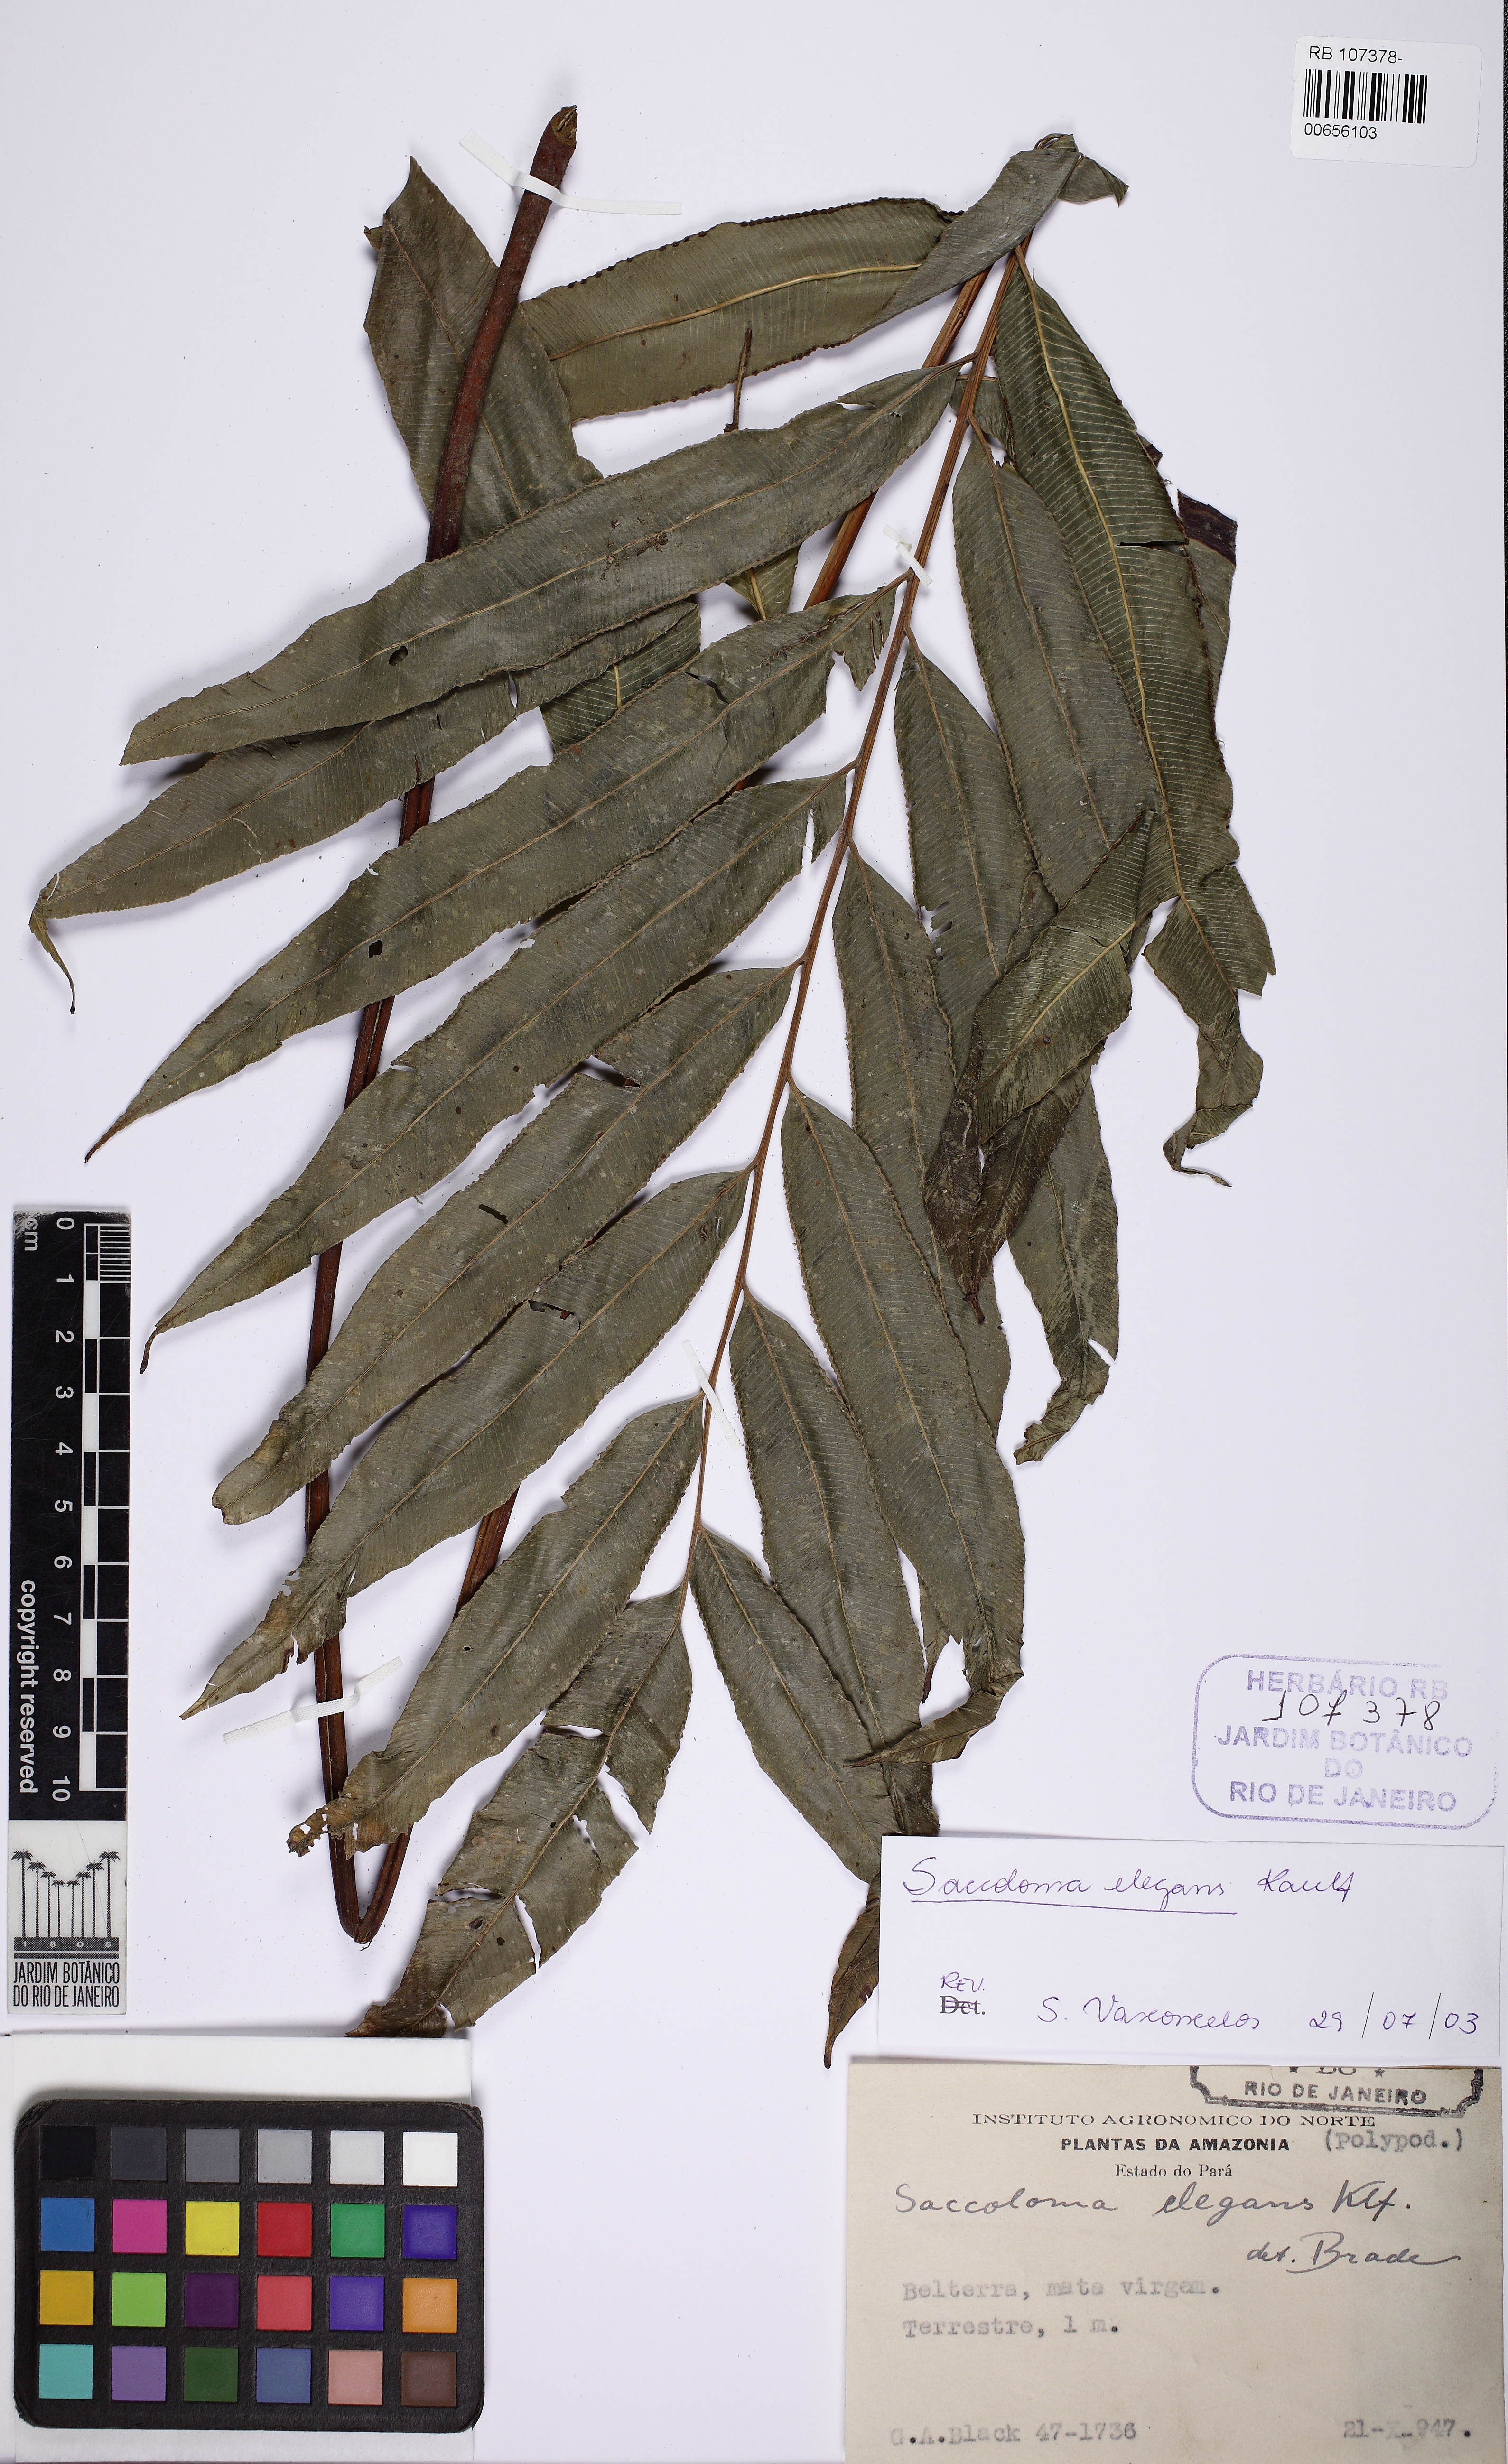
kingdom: Plantae
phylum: Tracheophyta
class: Polypodiopsida
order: Polypodiales
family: Saccolomataceae
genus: Saccoloma
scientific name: Saccoloma elegans
